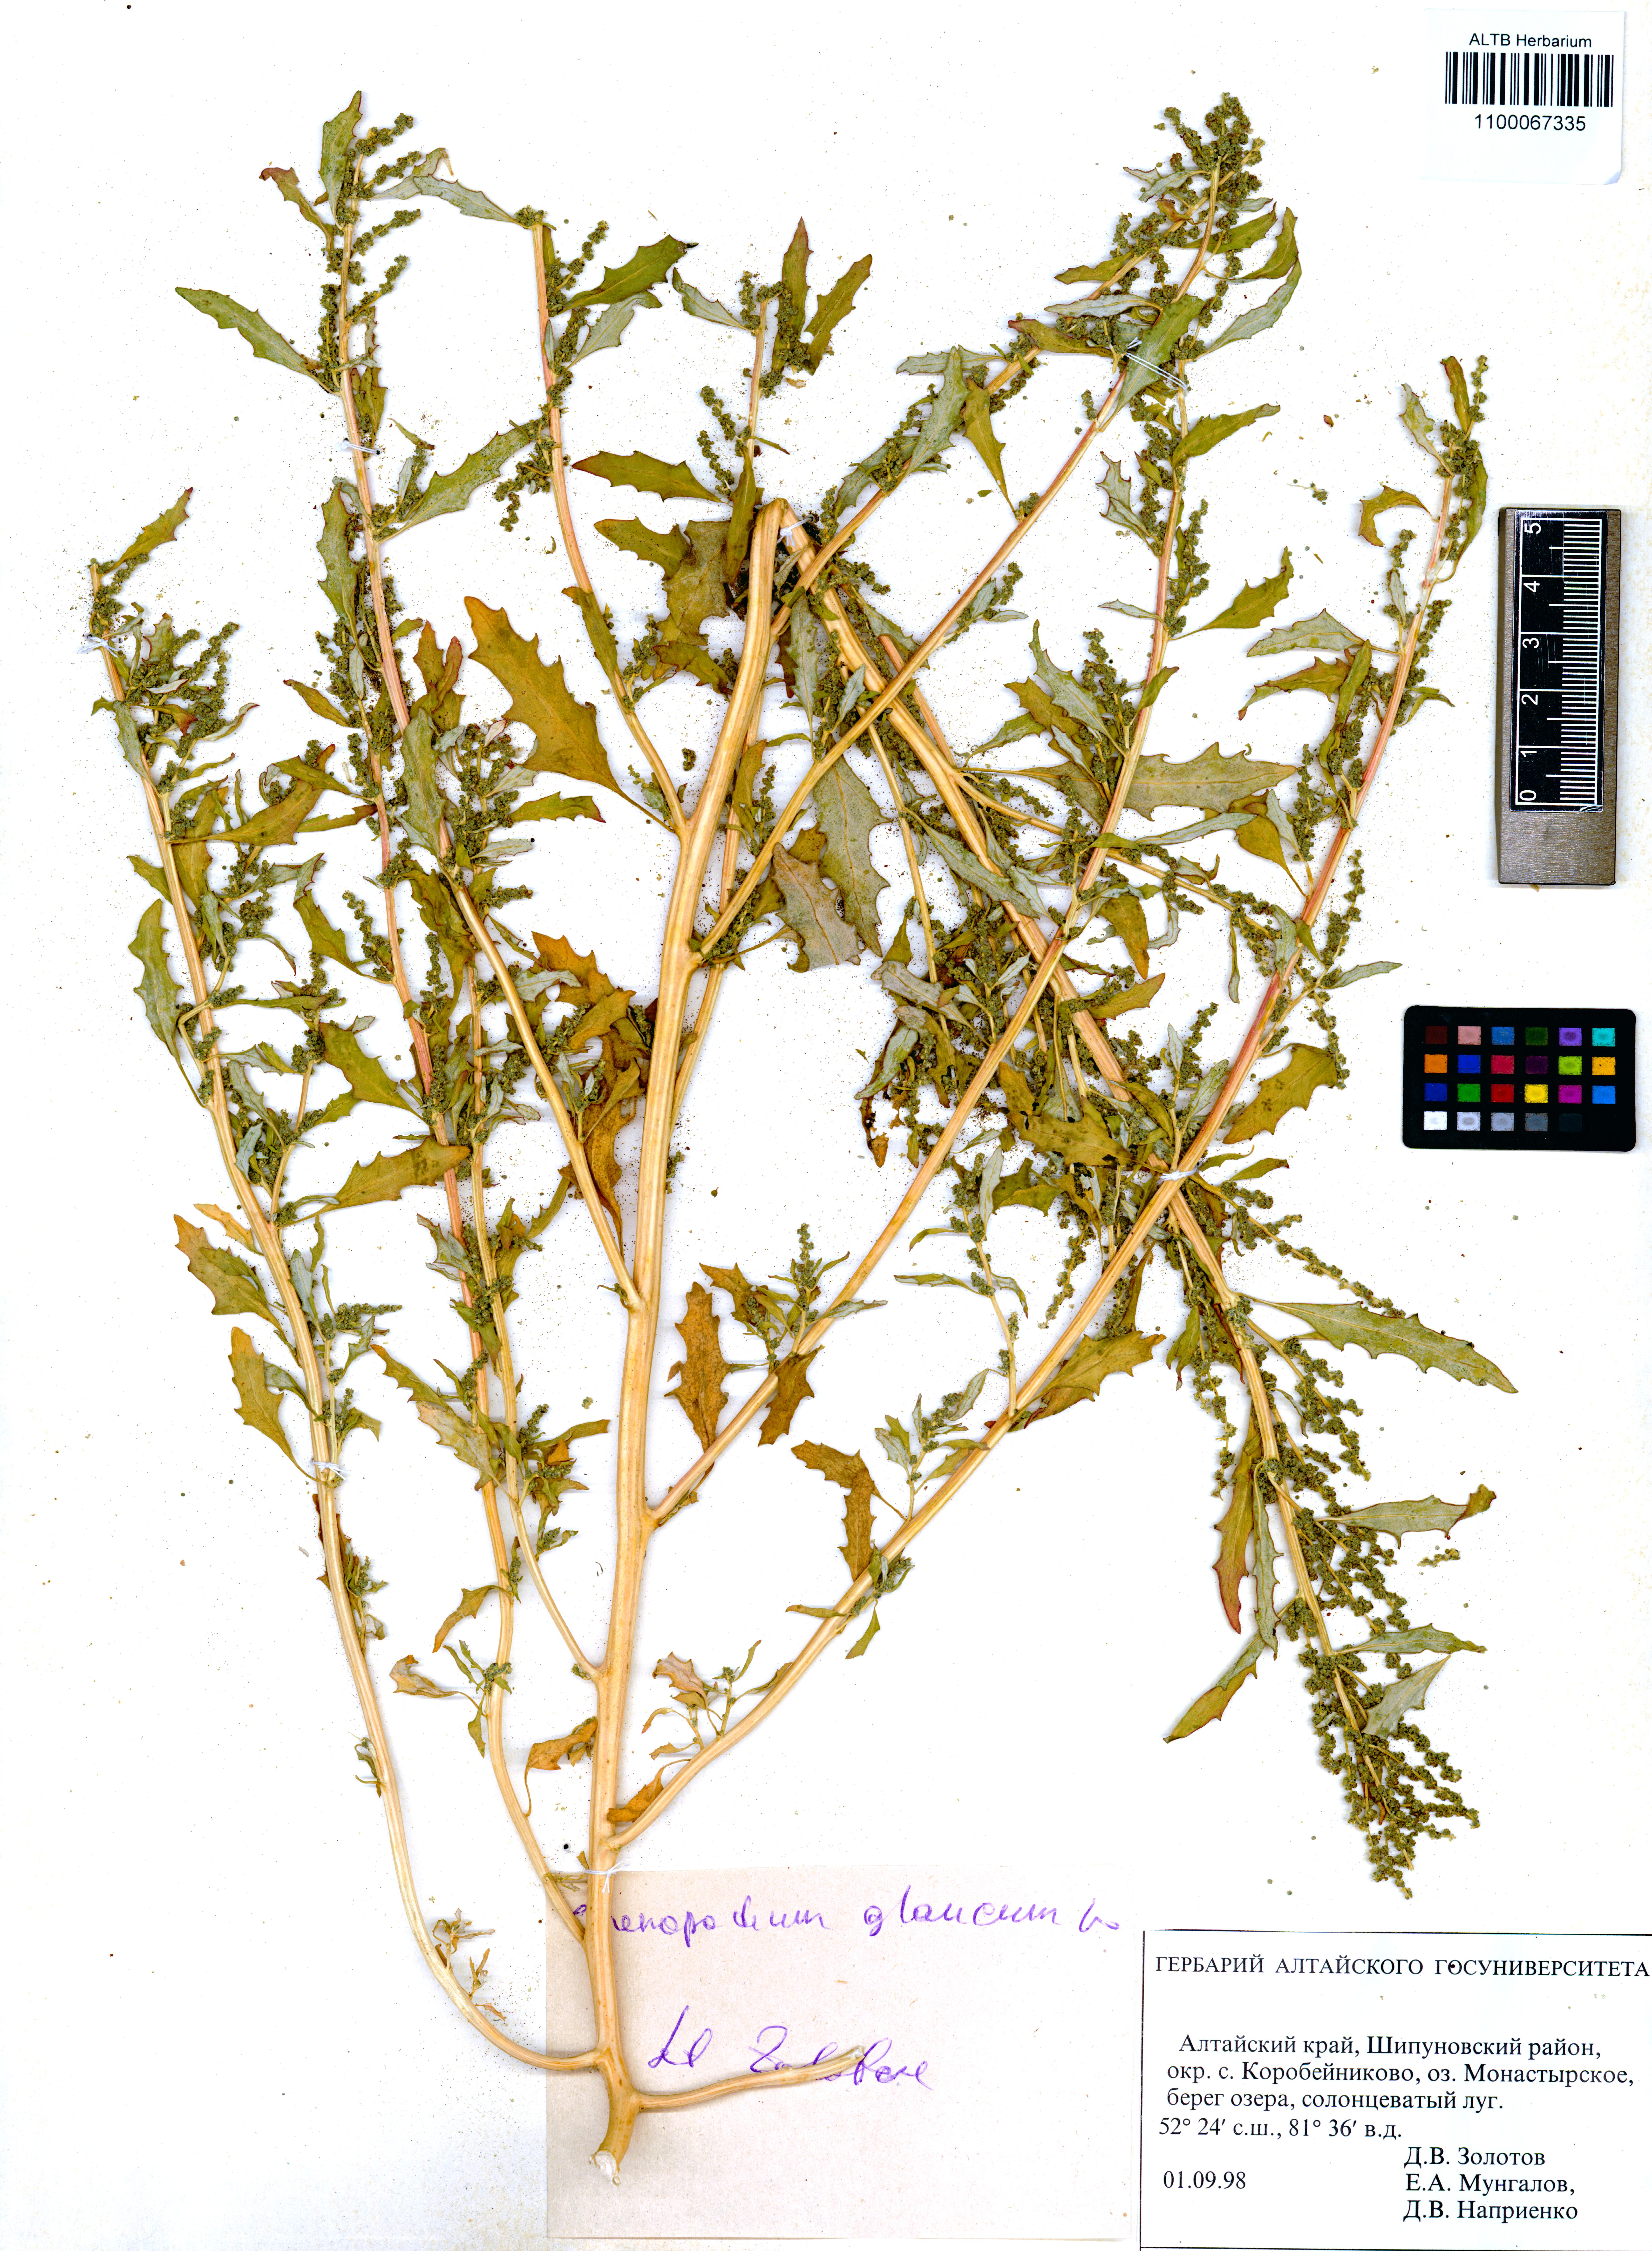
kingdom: Plantae
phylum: Tracheophyta
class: Magnoliopsida
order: Caryophyllales
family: Amaranthaceae
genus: Oxybasis
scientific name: Oxybasis glauca
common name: Glaucous goosefoot
